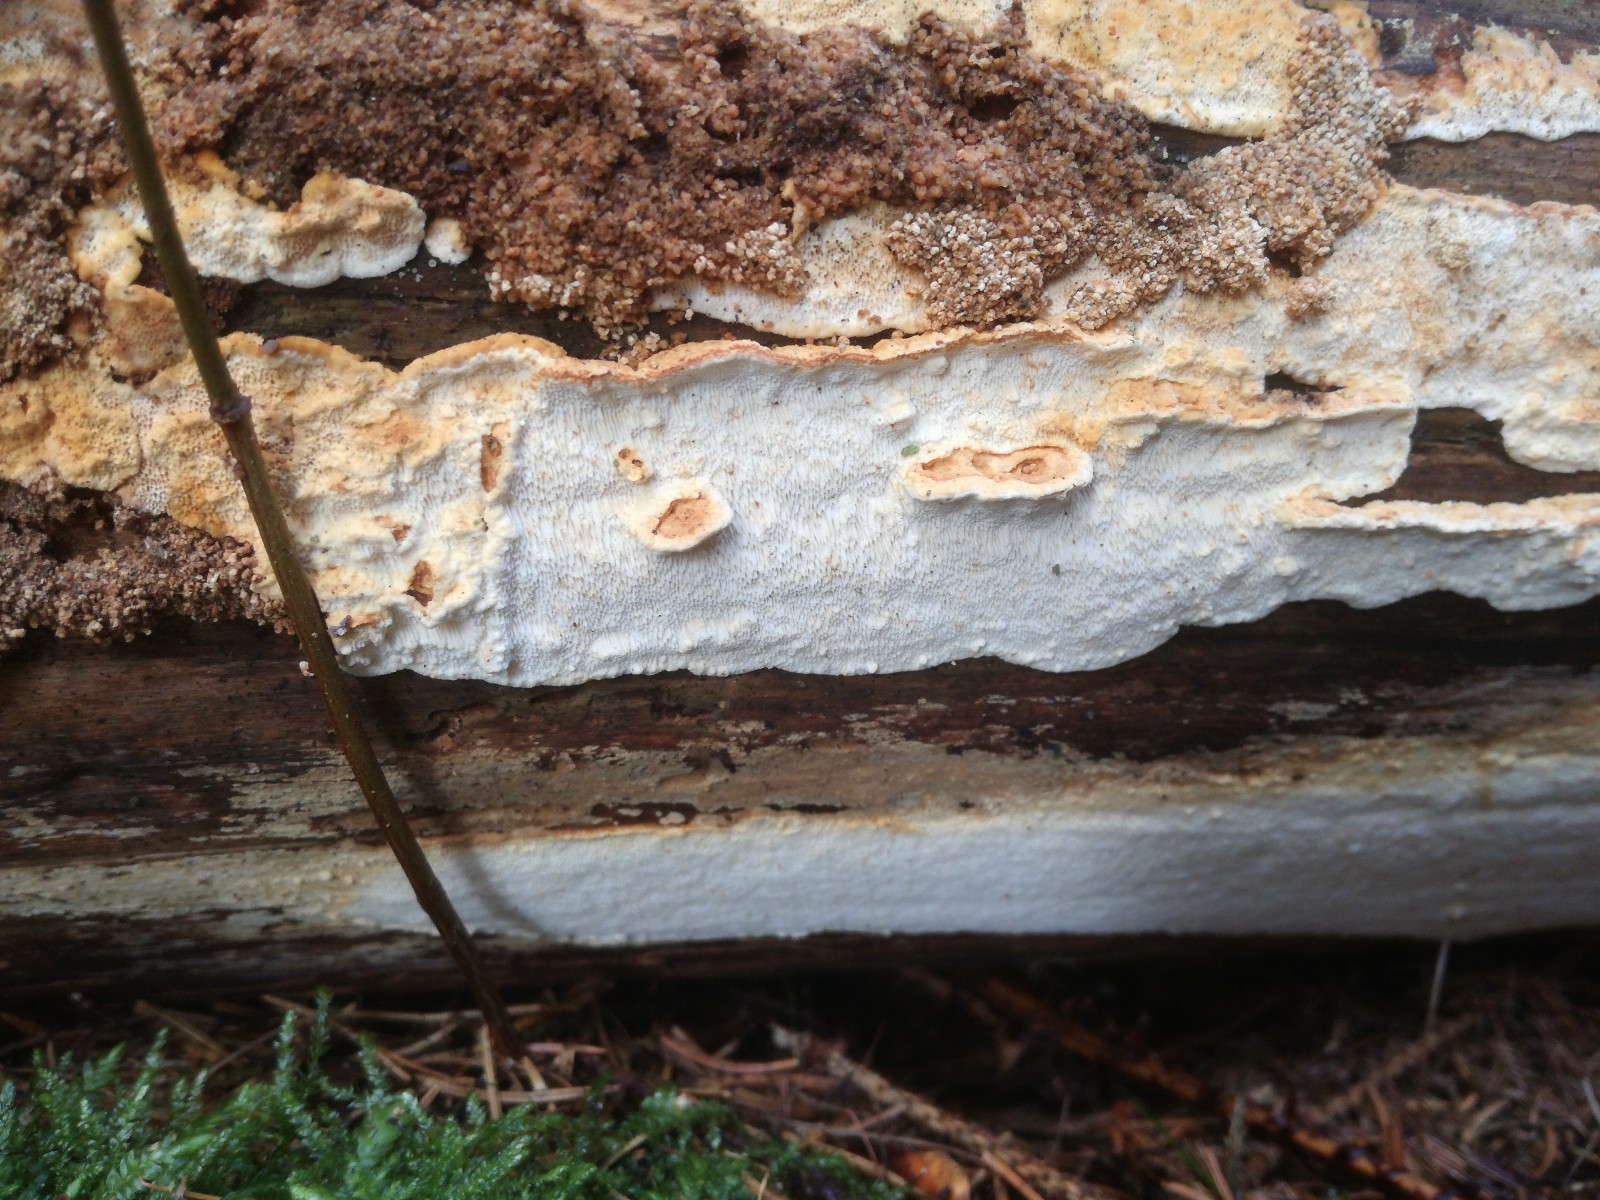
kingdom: Fungi
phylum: Basidiomycota
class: Agaricomycetes
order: Polyporales
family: Fomitopsidaceae
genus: Neoantrodia
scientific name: Neoantrodia serialis
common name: række-sejporesvamp
